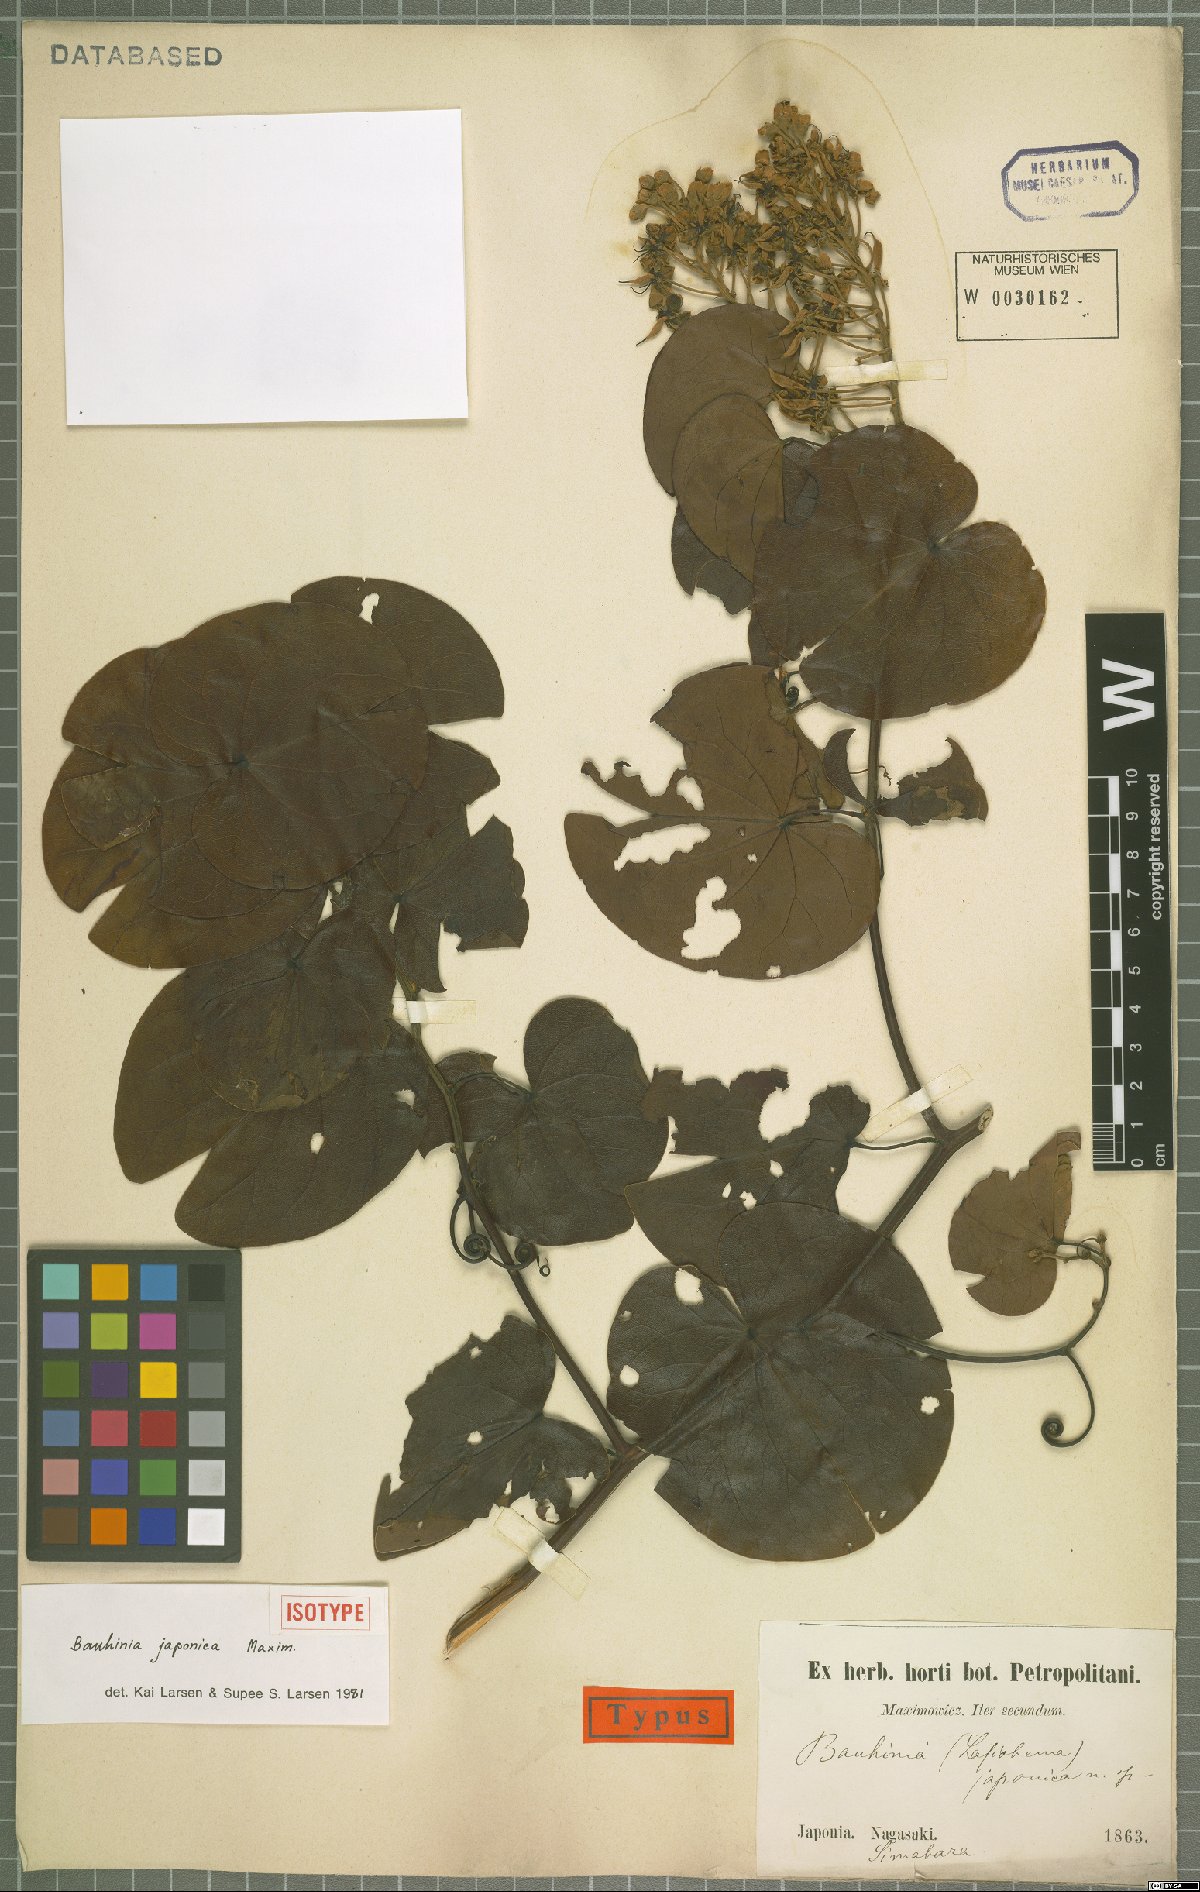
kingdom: Plantae
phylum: Tracheophyta
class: Magnoliopsida
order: Fabales
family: Fabaceae
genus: Phanera
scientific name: Phanera japonica
